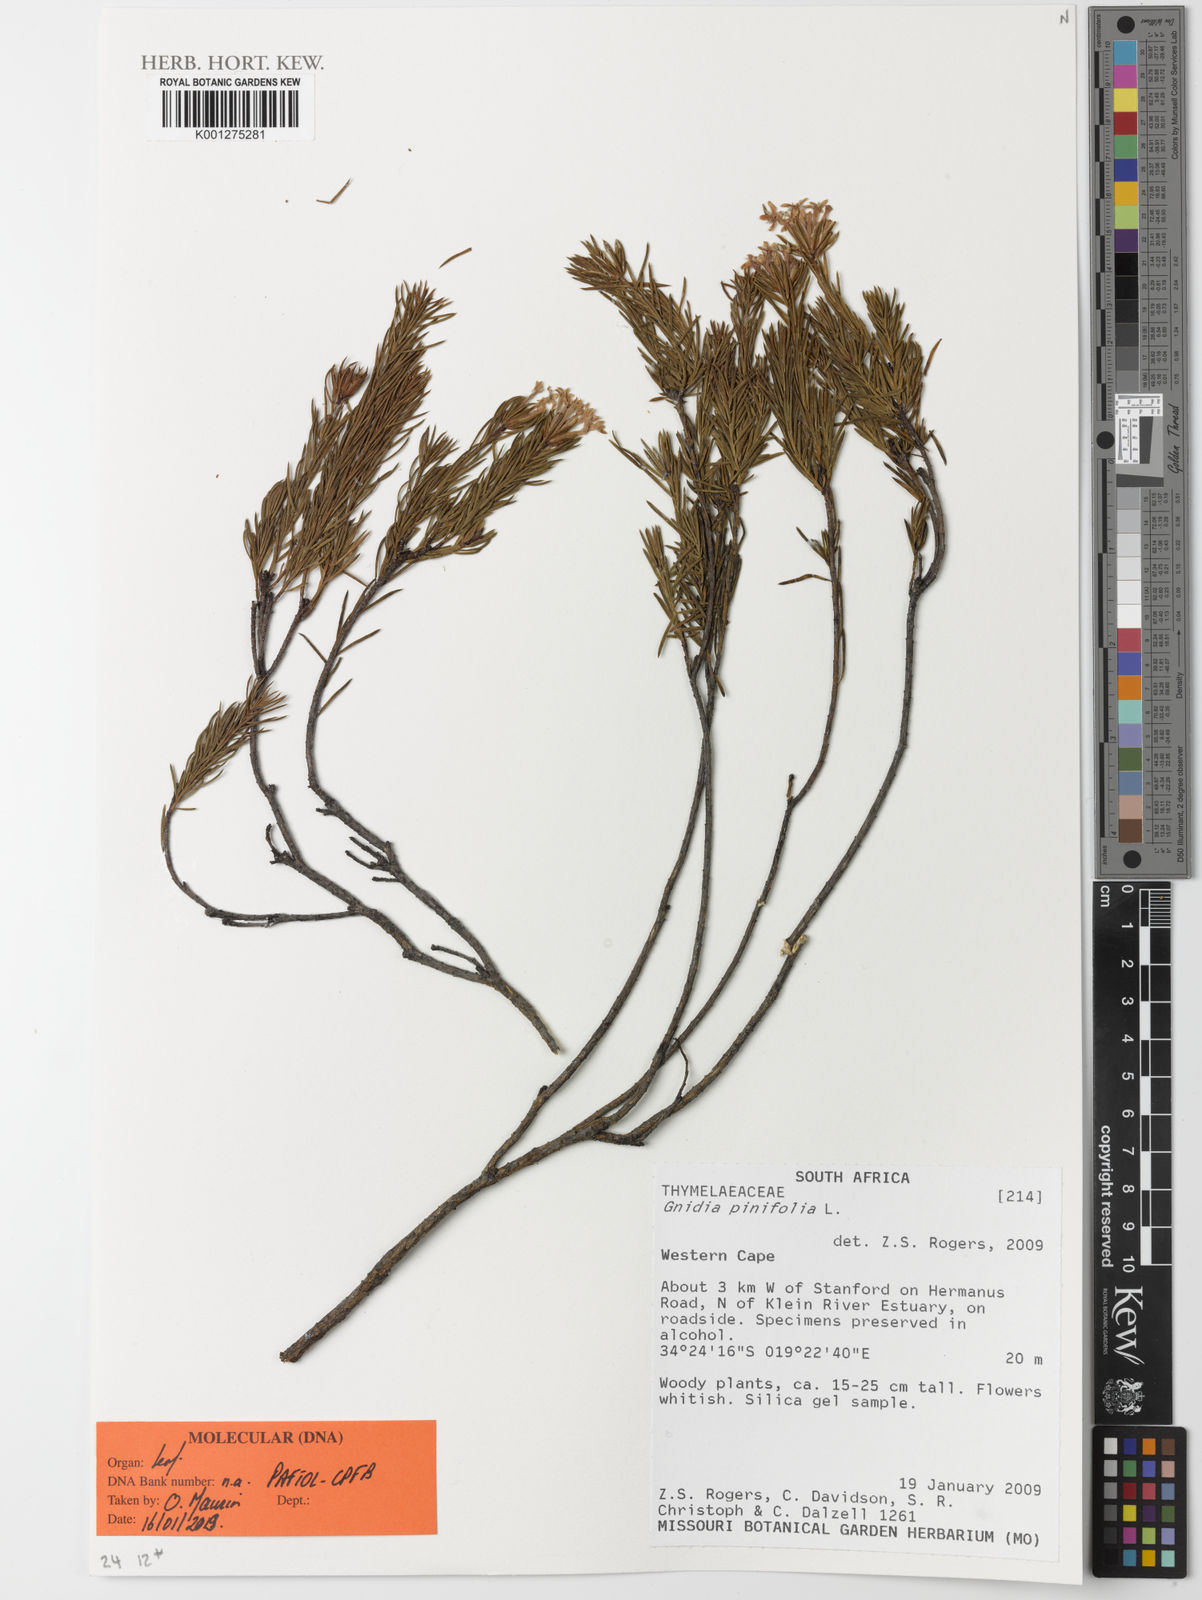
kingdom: Plantae
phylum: Tracheophyta
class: Magnoliopsida
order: Malvales
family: Thymelaeaceae
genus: Gnidia
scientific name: Gnidia pinifolia
